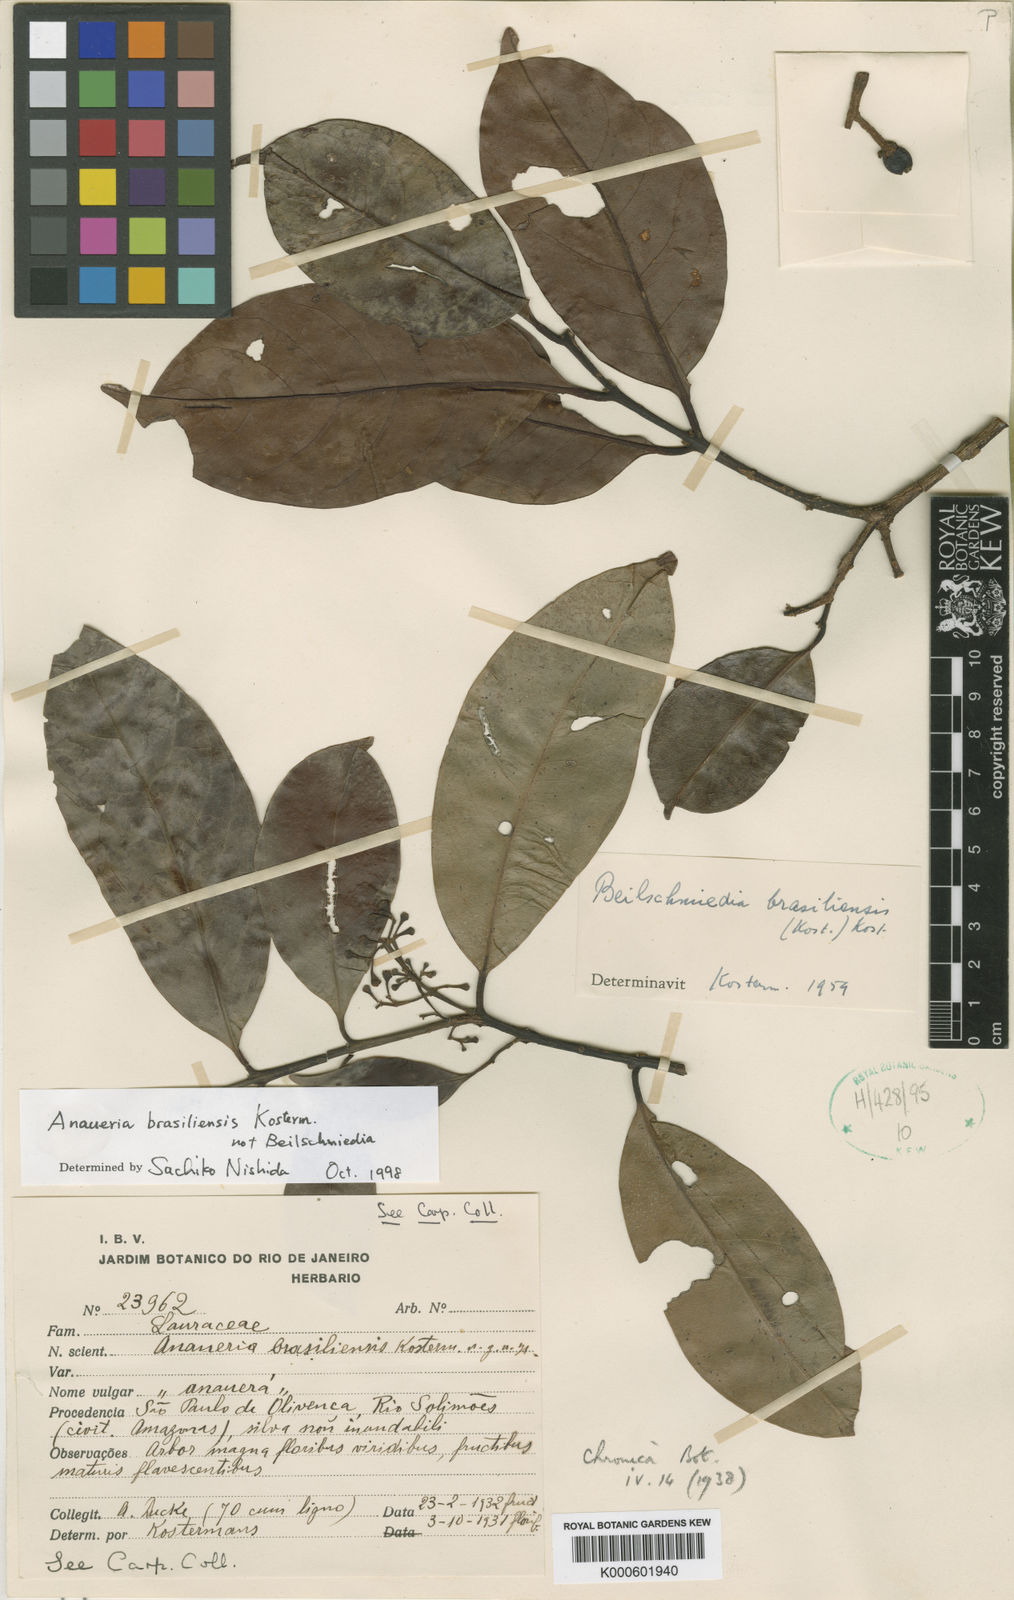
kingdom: Plantae
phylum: Tracheophyta
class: Magnoliopsida
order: Laurales
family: Lauraceae
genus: Anaueria
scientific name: Anaueria brasiliensis
